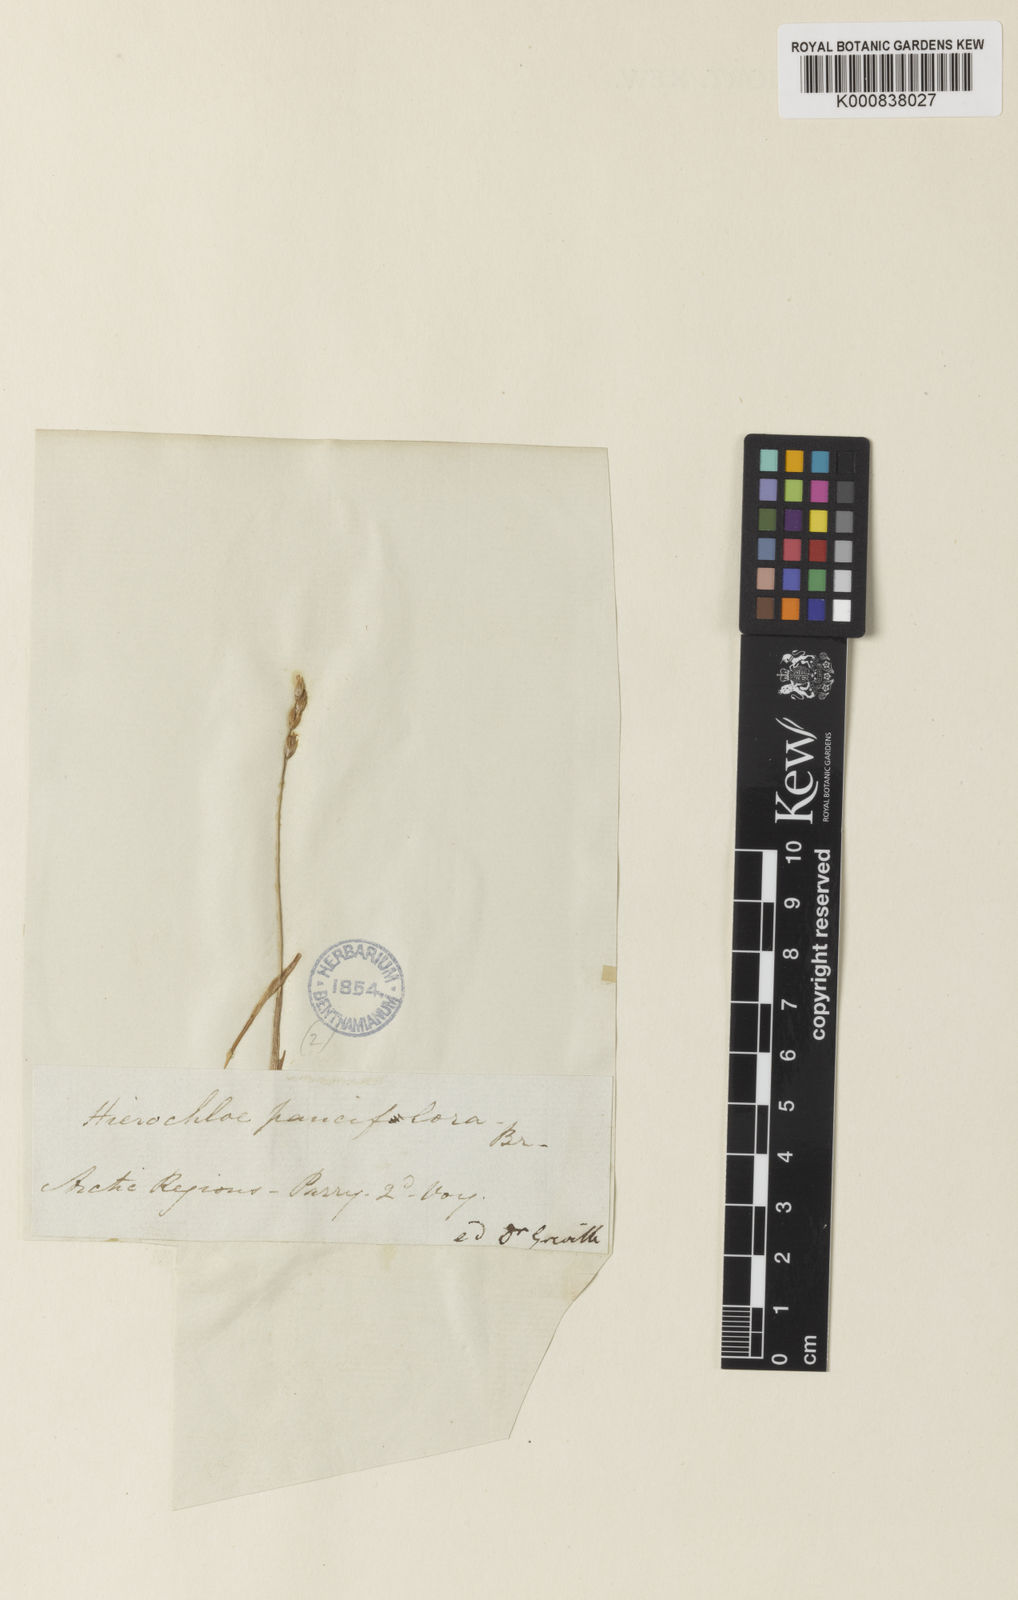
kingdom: Plantae
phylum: Tracheophyta
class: Liliopsida
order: Poales
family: Poaceae
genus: Anthoxanthum
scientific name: Anthoxanthum arcticum
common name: Arctic sweetgrass
